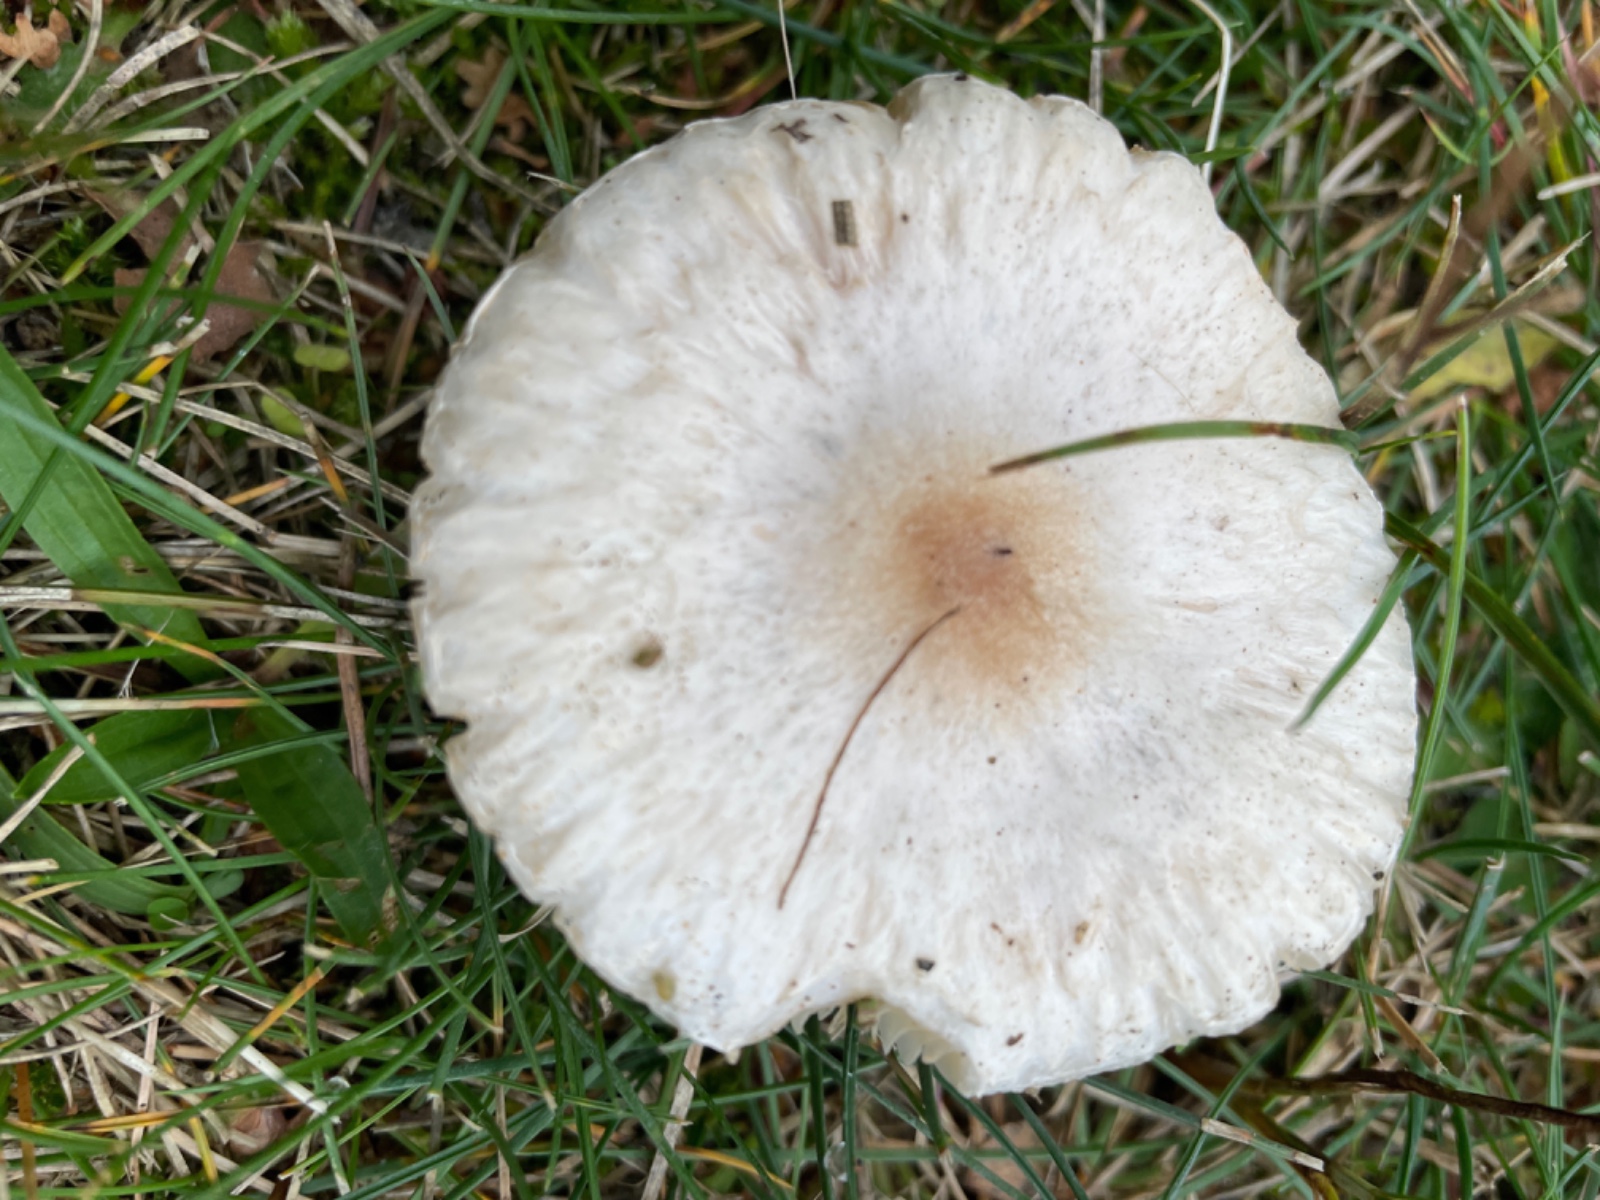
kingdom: Fungi
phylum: Basidiomycota
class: Agaricomycetes
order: Agaricales
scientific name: Agaricales
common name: champignonordenen
